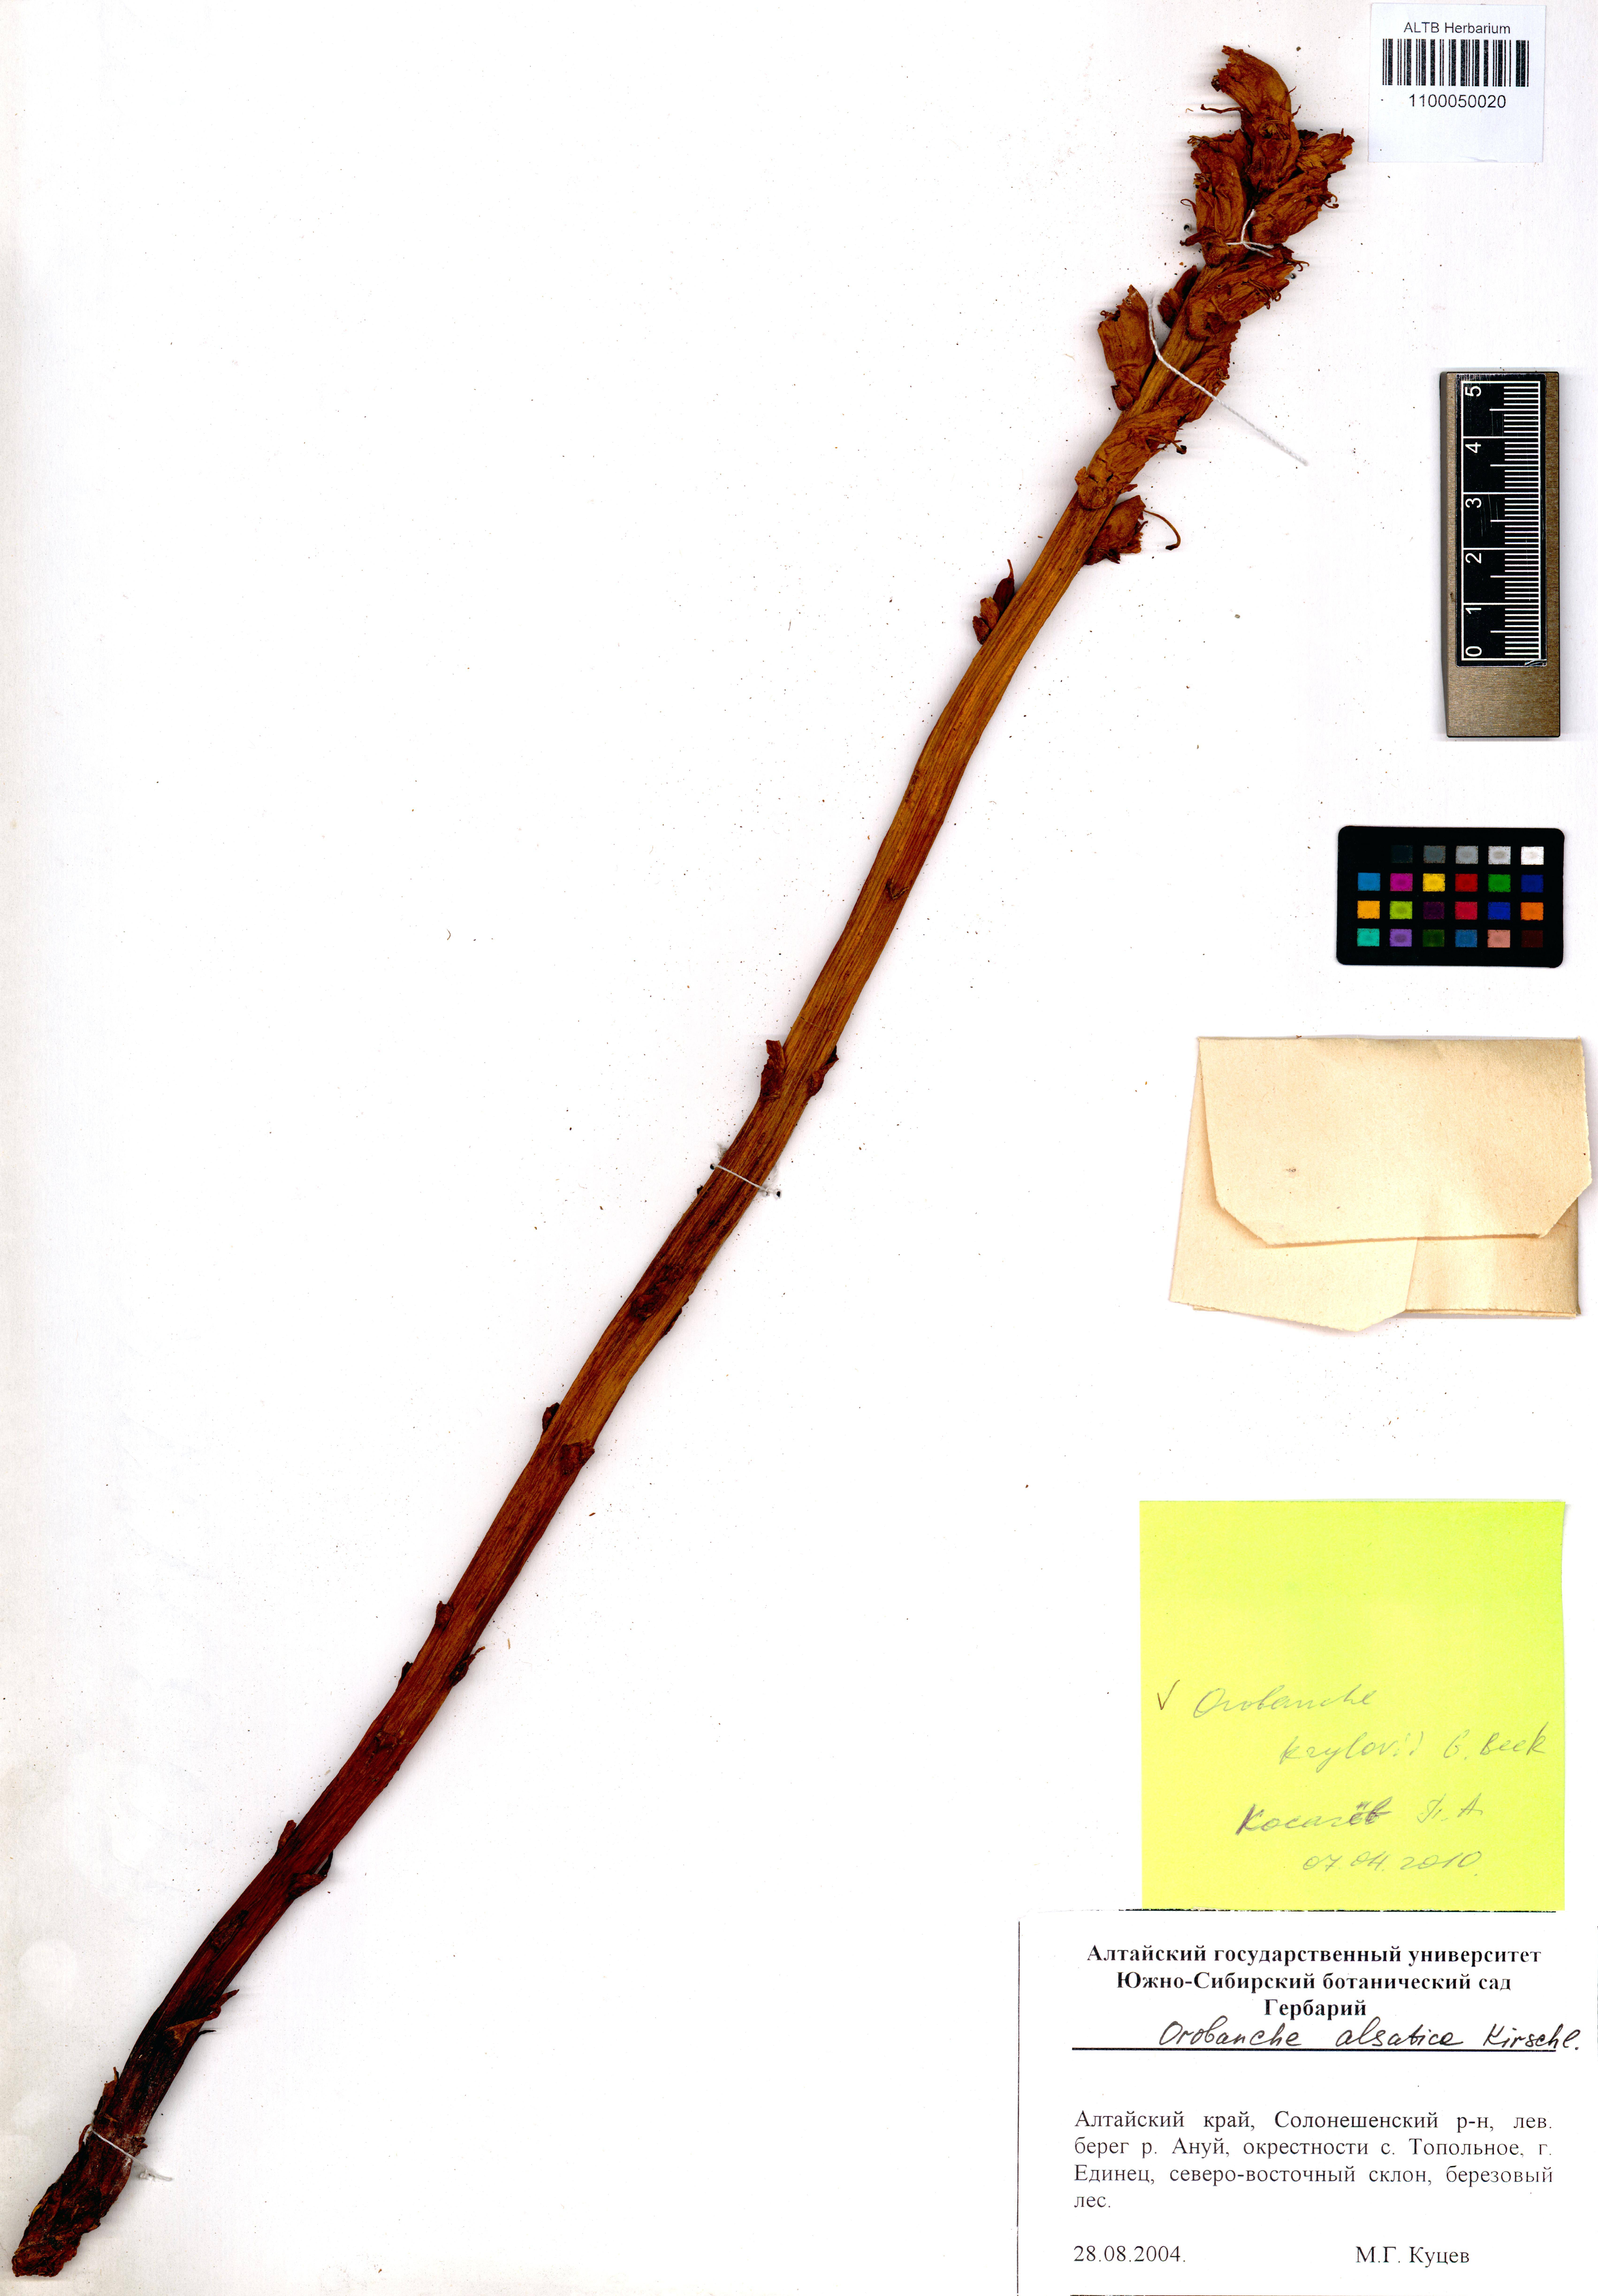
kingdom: Plantae
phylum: Tracheophyta
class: Magnoliopsida
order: Lamiales
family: Orobanchaceae
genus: Orobanche
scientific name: Orobanche krylowii
